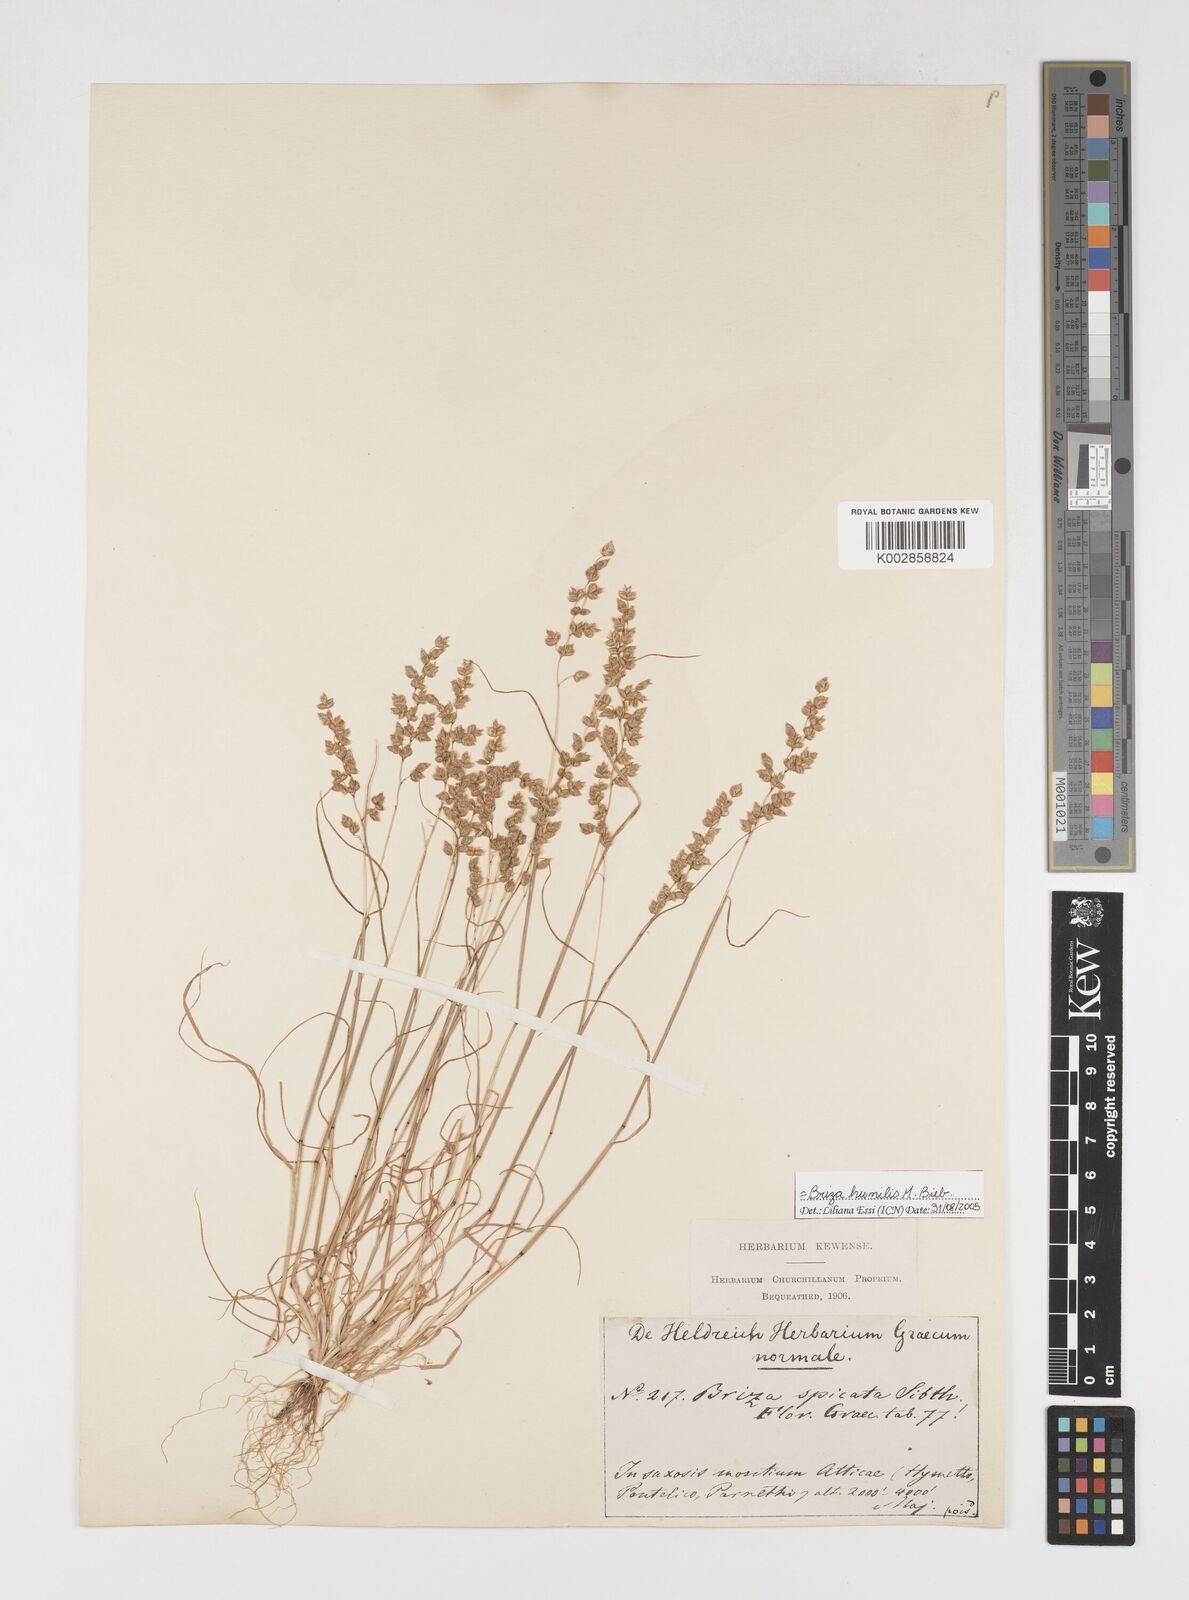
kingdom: Plantae
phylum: Tracheophyta
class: Liliopsida
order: Poales
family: Poaceae
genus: Briza
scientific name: Briza humilis
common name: Spiked quaking grass
